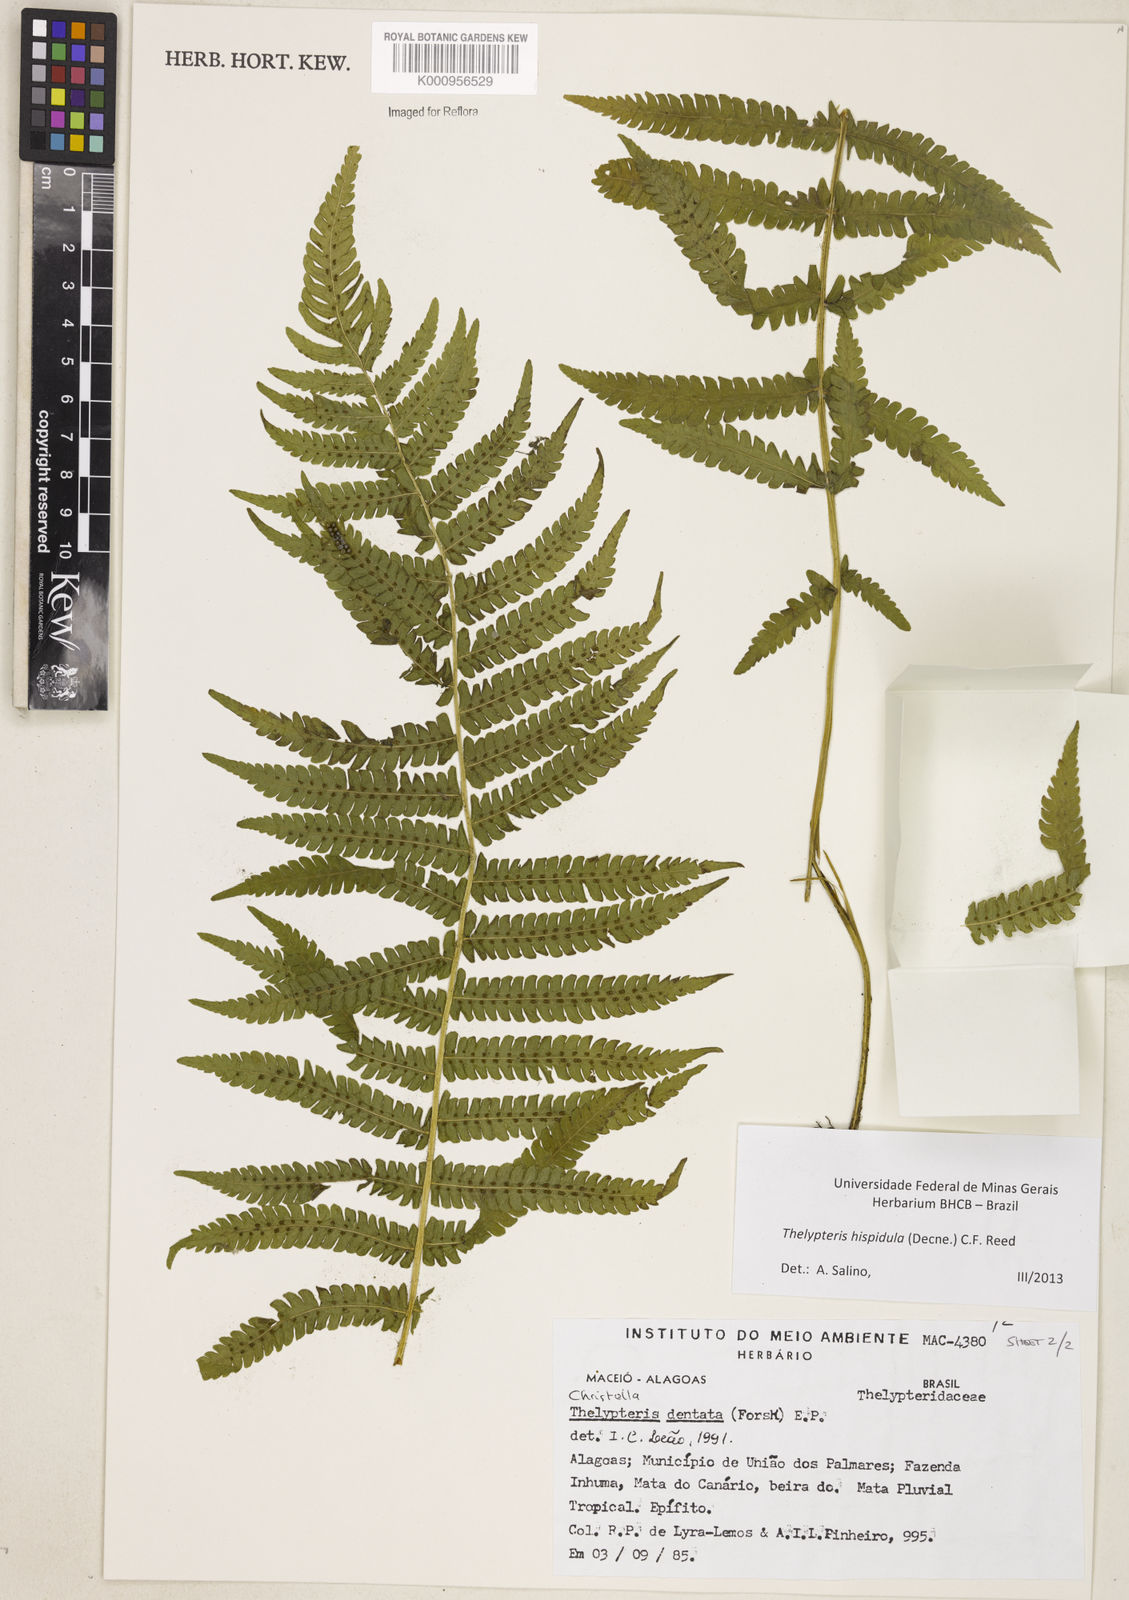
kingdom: Plantae
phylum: Tracheophyta
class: Polypodiopsida
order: Polypodiales
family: Thelypteridaceae
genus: Christella
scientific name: Christella hispidula
